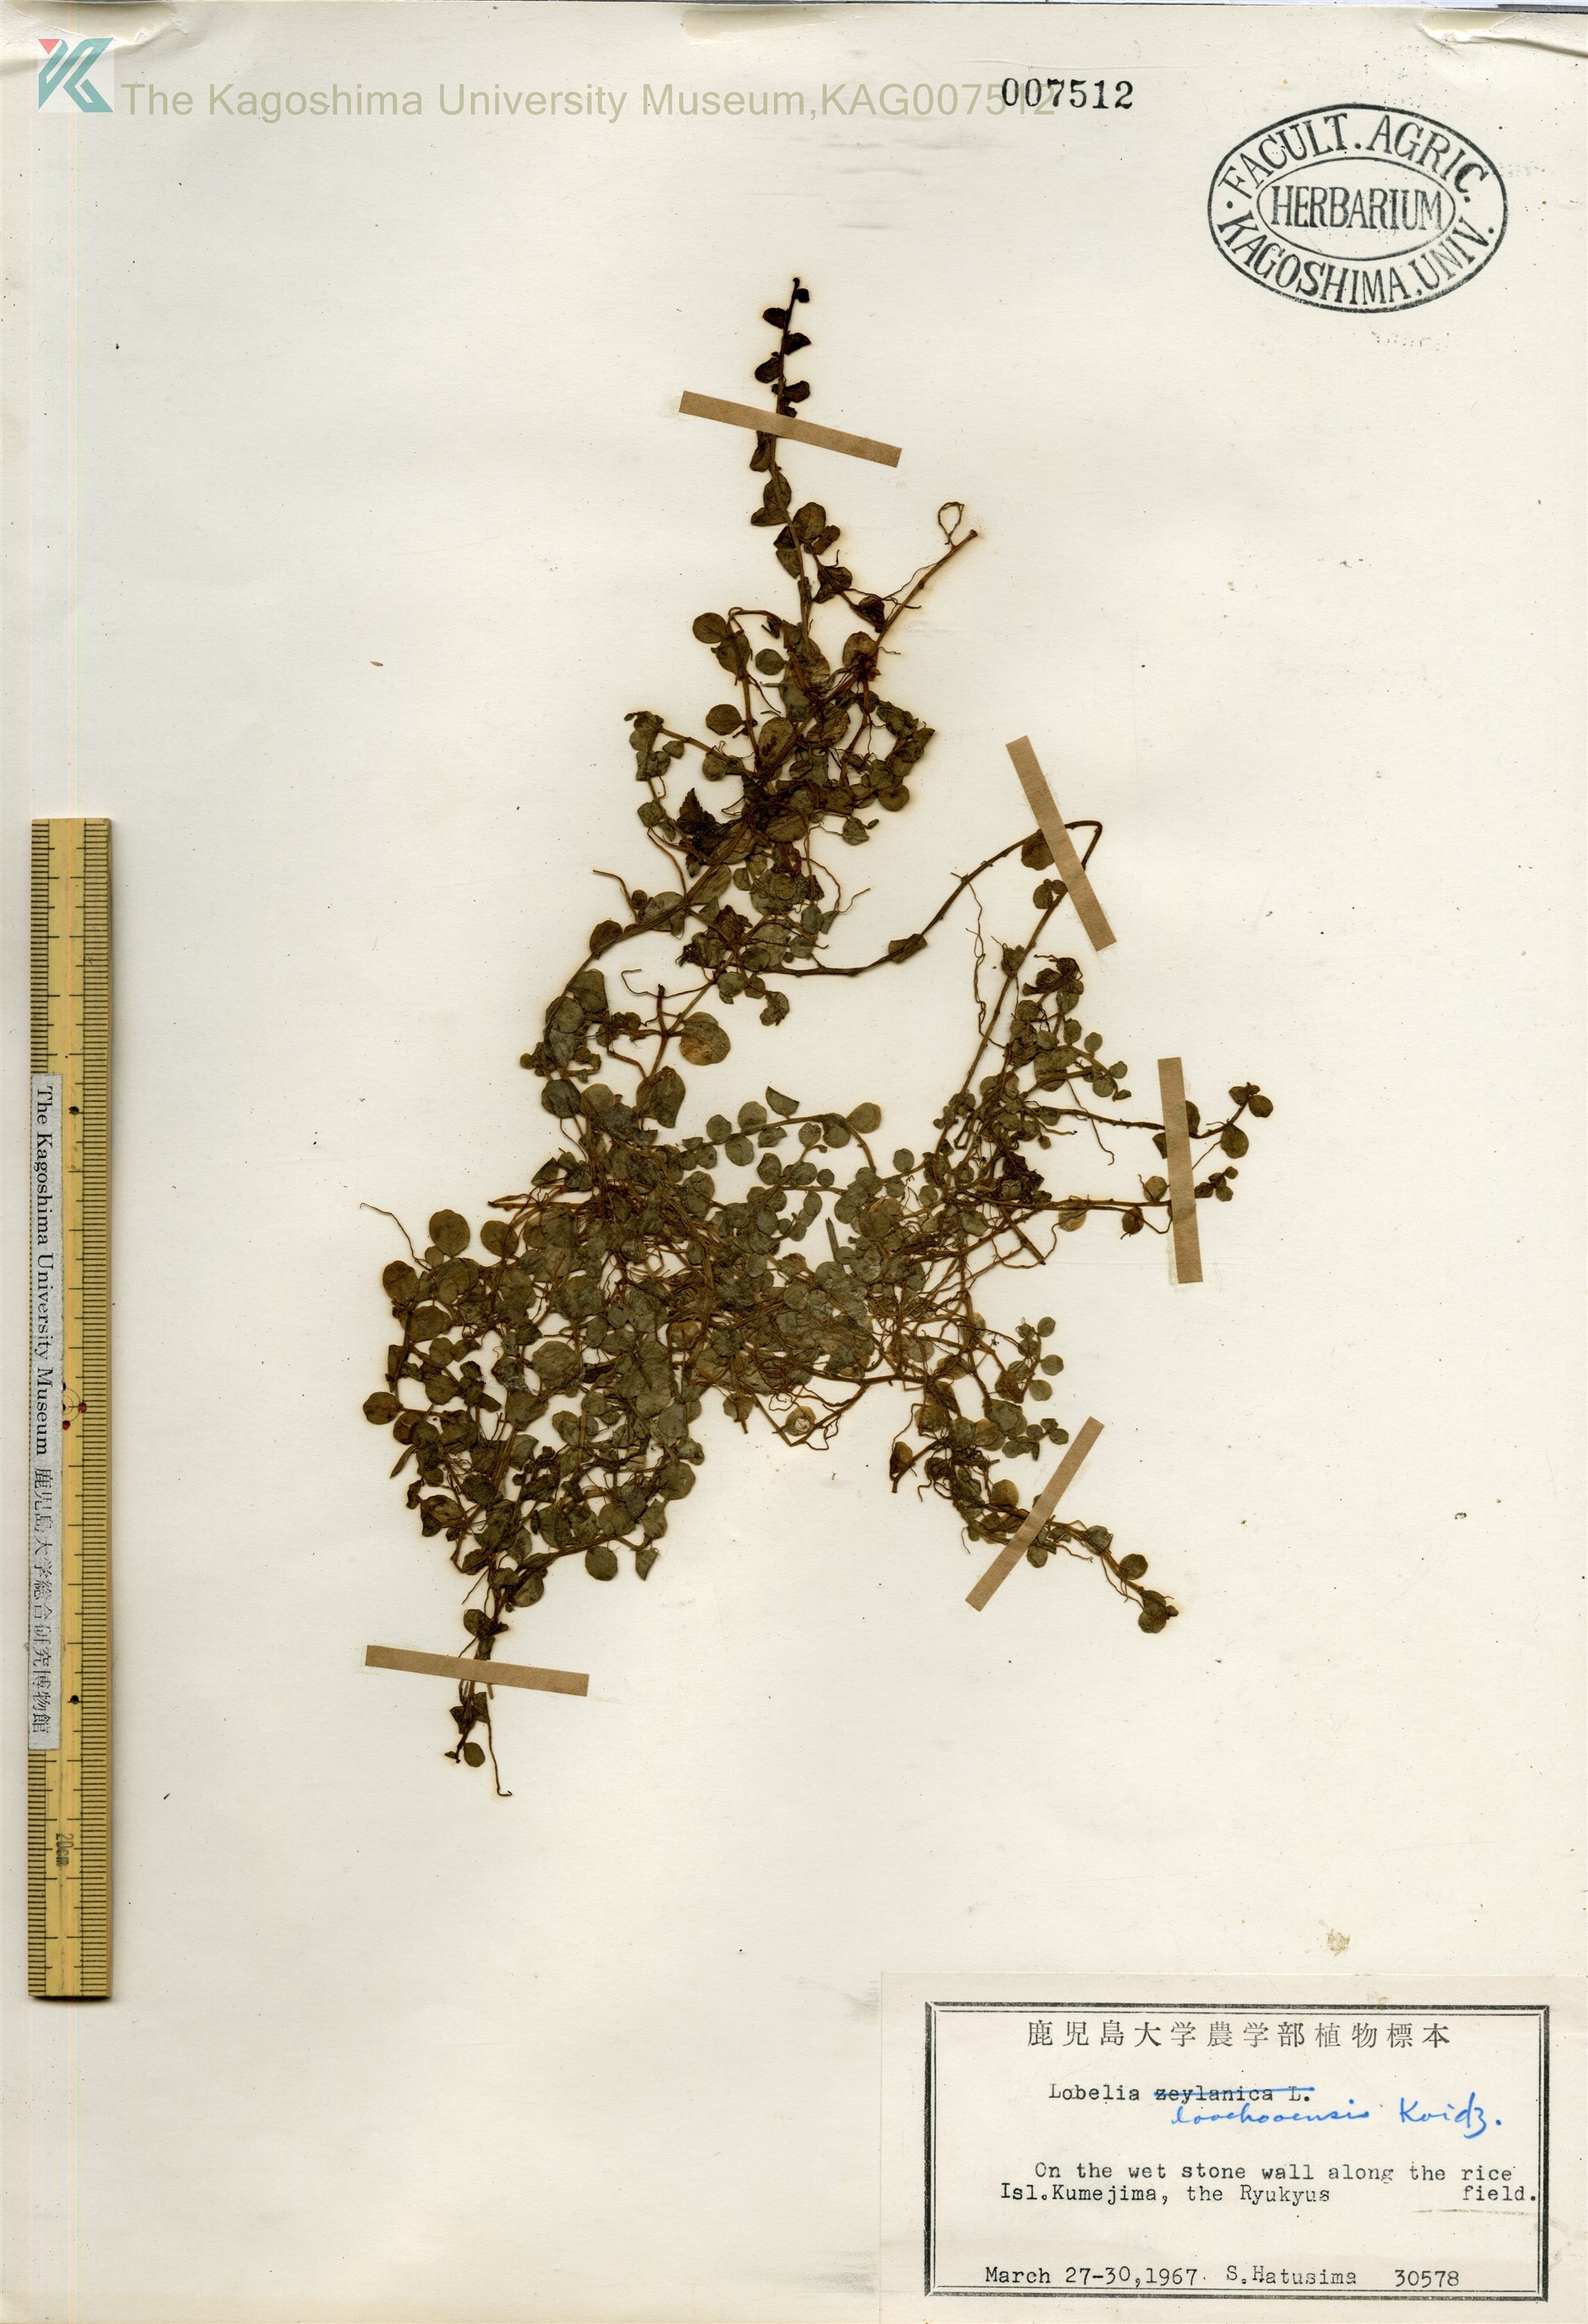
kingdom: Plantae
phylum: Tracheophyta
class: Magnoliopsida
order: Asterales
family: Campanulaceae
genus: Lobelia
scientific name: Lobelia loochooensis
